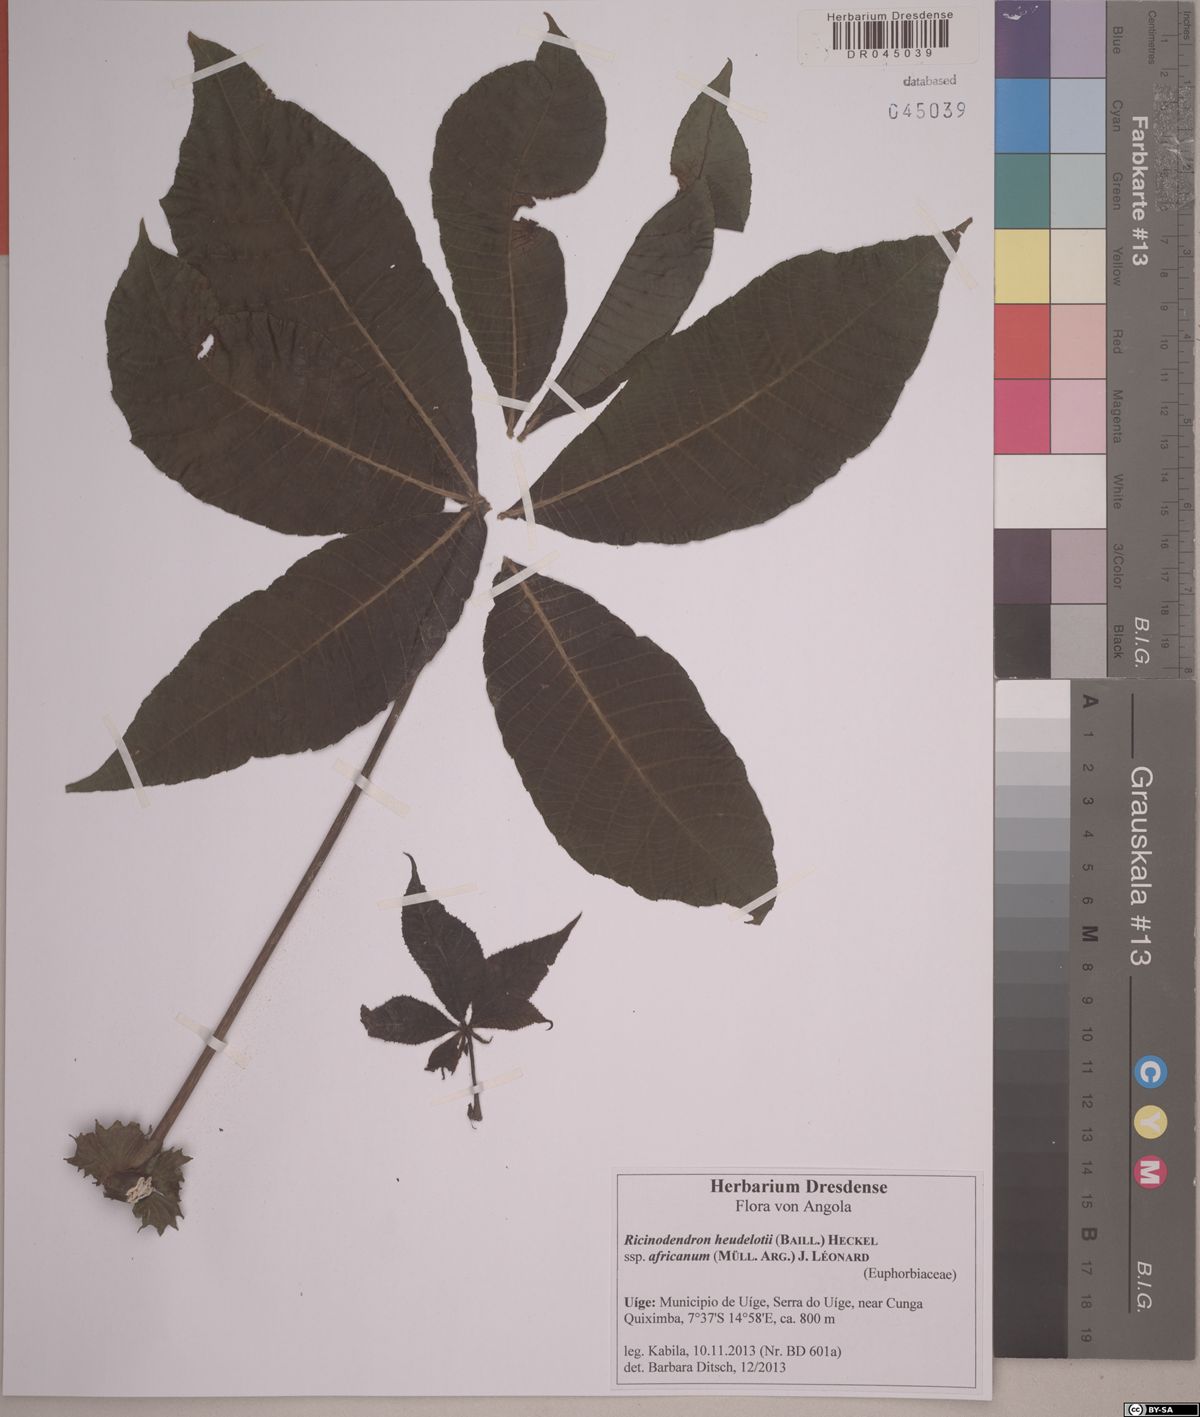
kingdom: Plantae
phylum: Tracheophyta
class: Magnoliopsida
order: Malpighiales
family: Euphorbiaceae
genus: Ricinodendron
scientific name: Ricinodendron heudelotii
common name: African nut-tree
